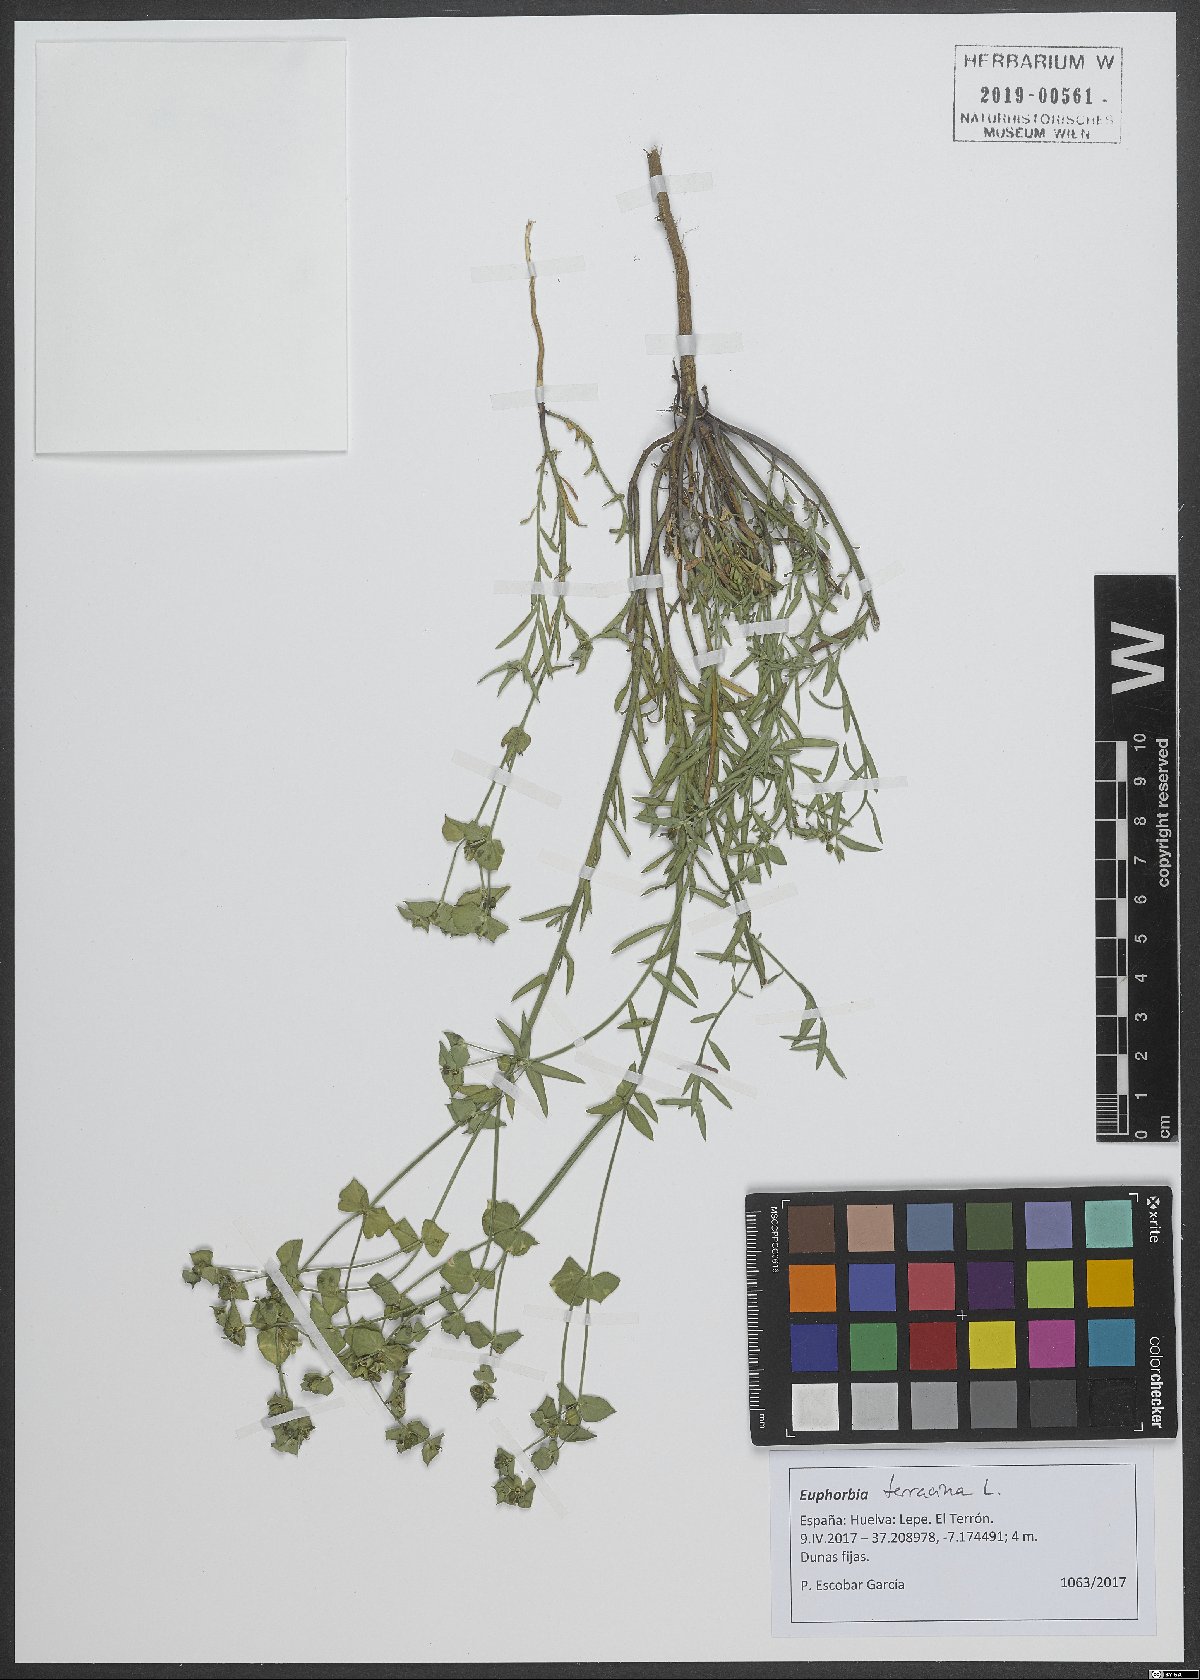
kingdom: Plantae
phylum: Tracheophyta
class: Magnoliopsida
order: Malpighiales
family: Euphorbiaceae
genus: Euphorbia
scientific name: Euphorbia terracina
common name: Geraldton carnation weed
